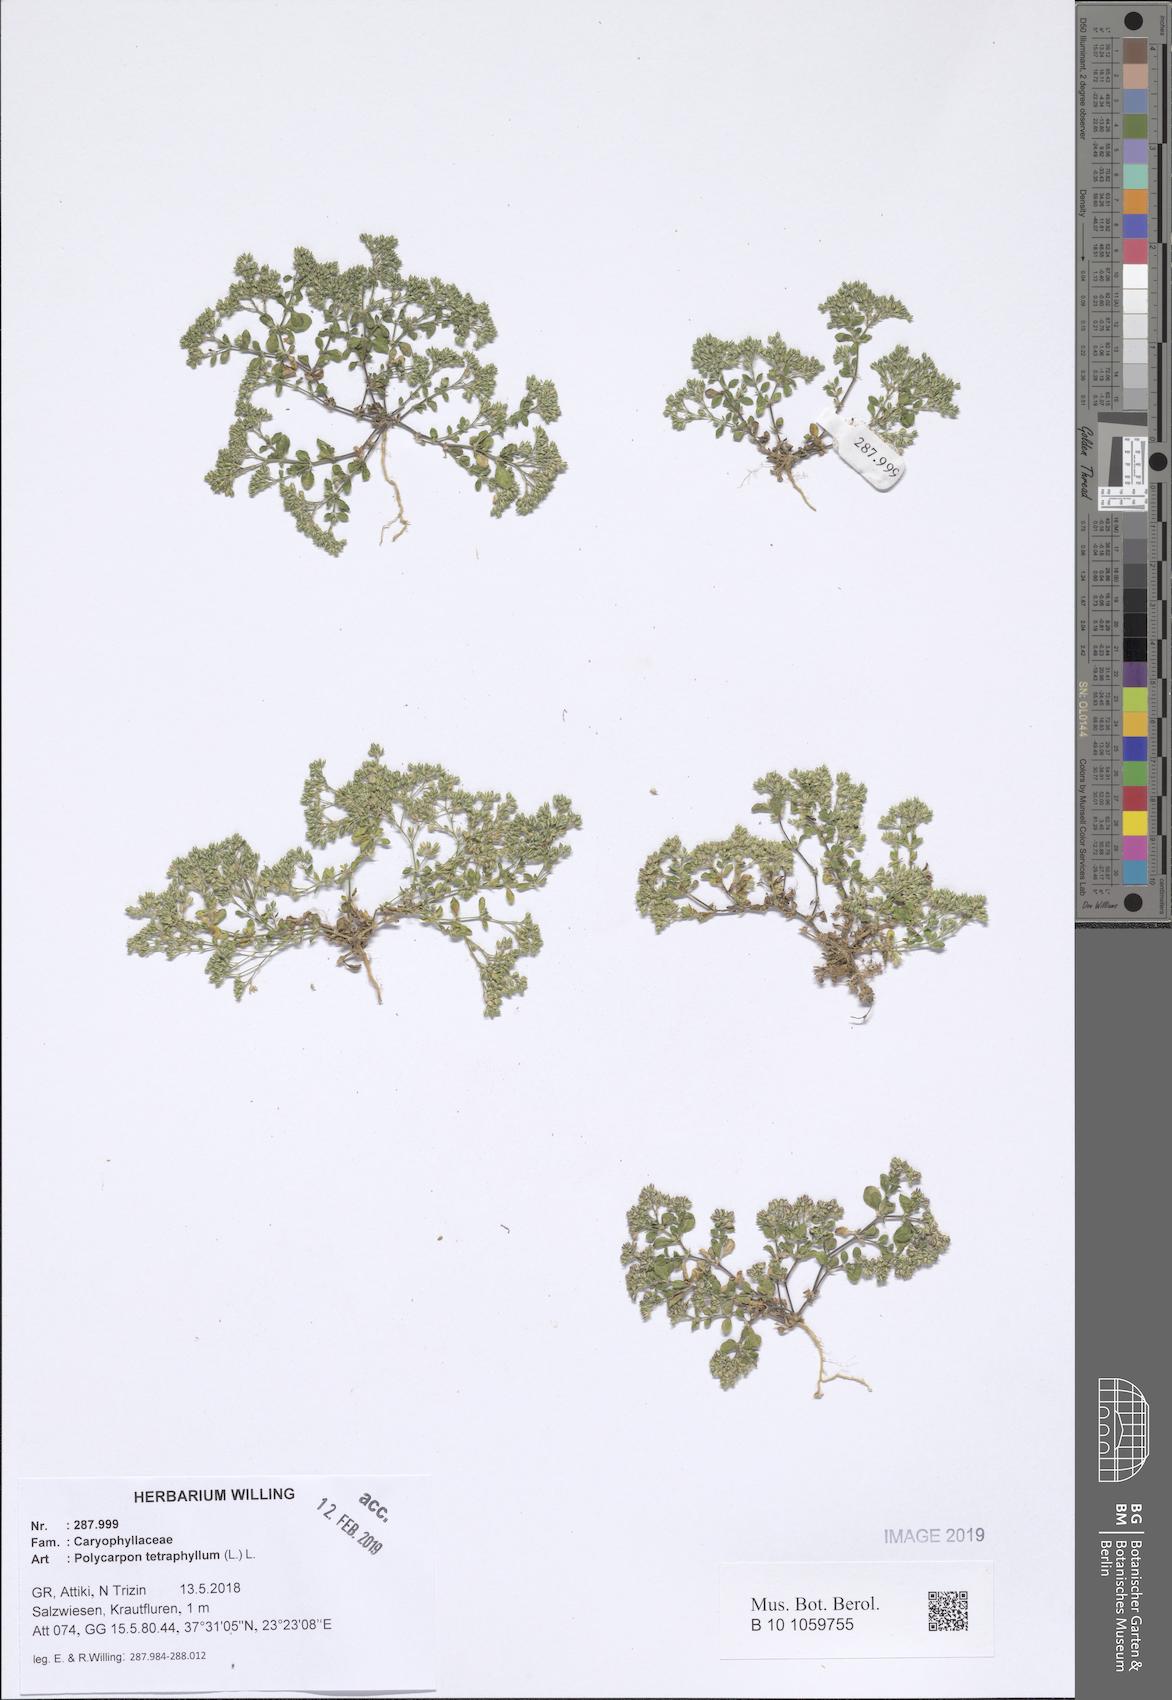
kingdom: Plantae
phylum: Tracheophyta
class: Magnoliopsida
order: Caryophyllales
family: Caryophyllaceae
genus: Polycarpon
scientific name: Polycarpon tetraphyllum
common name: Four-leaved all-seed
